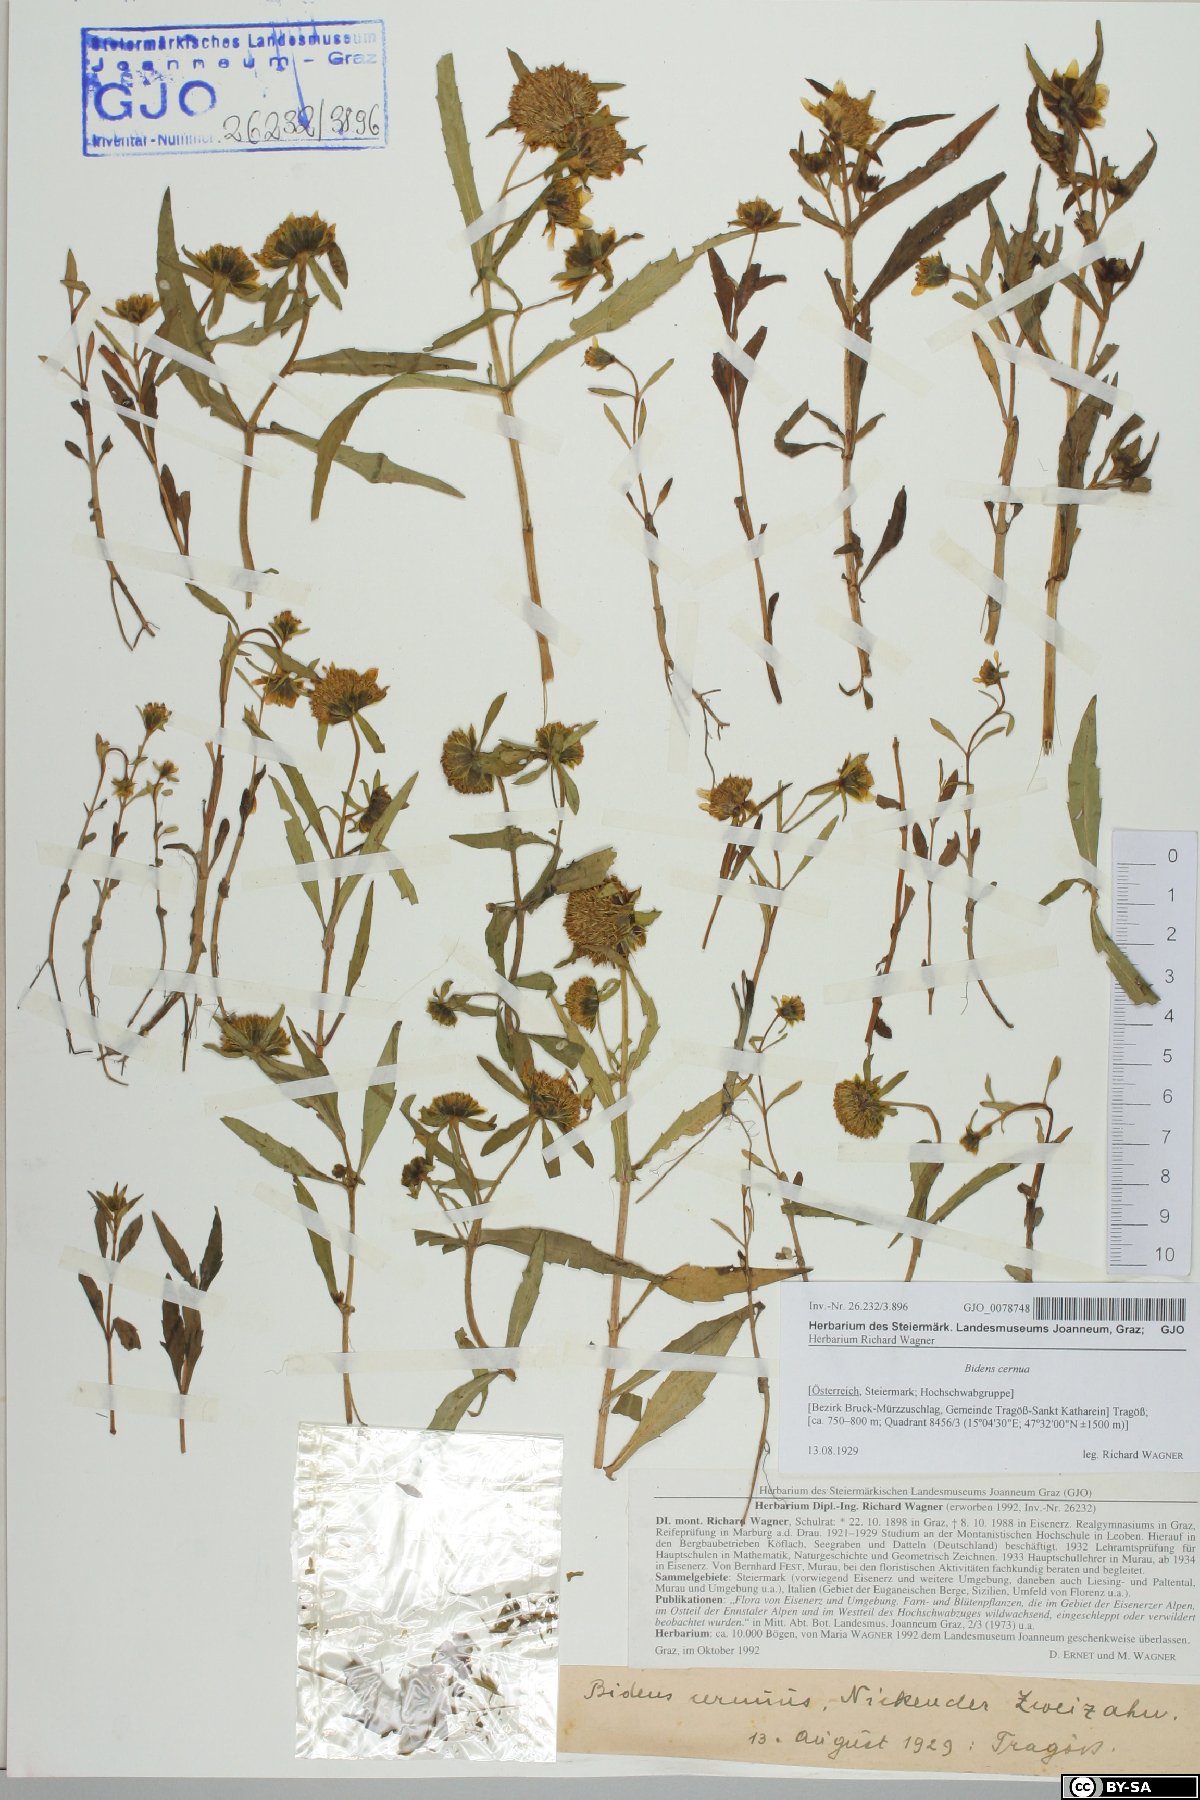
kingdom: Plantae
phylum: Tracheophyta
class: Magnoliopsida
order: Asterales
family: Asteraceae
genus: Bidens
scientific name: Bidens cernua
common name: Nodding bur-marigold
